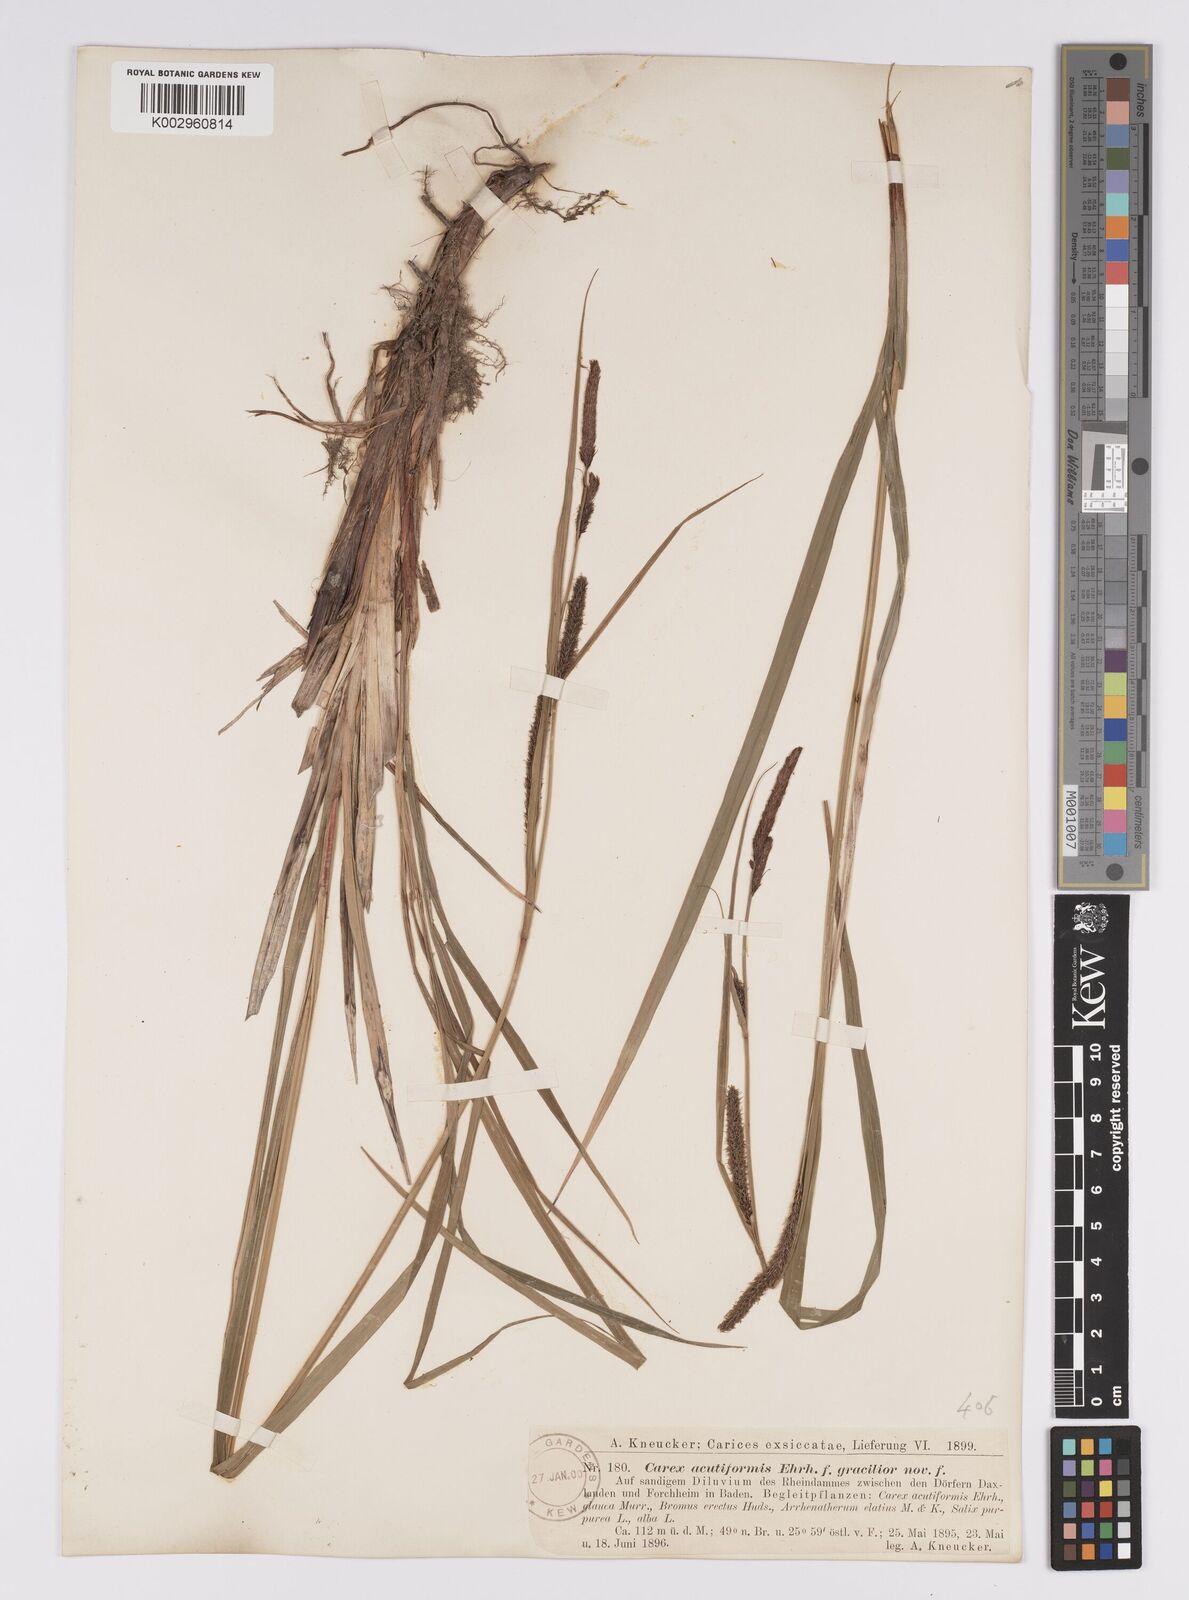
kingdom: Plantae
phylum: Tracheophyta
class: Liliopsida
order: Poales
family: Cyperaceae
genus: Carex
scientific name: Carex acutiformis
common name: Lesser pond-sedge
